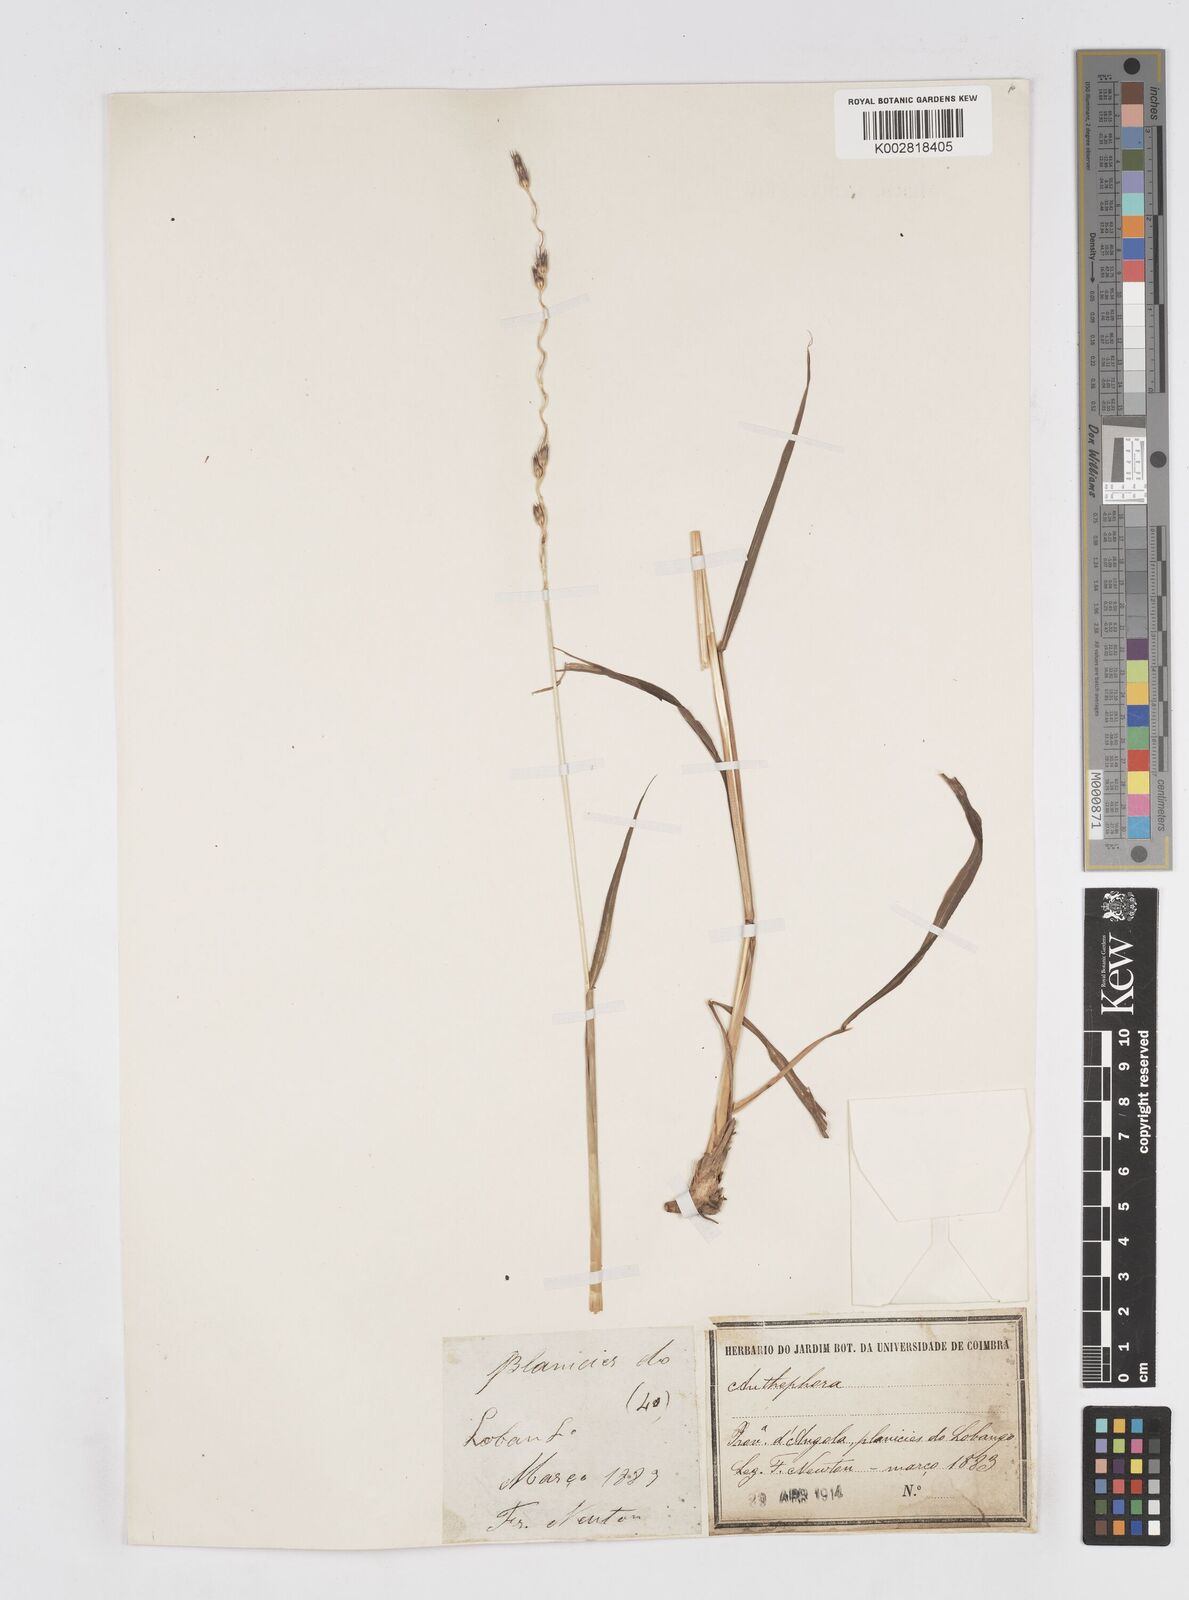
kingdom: Plantae
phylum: Tracheophyta
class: Liliopsida
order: Poales
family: Poaceae
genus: Anthephora
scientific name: Anthephora elongata
